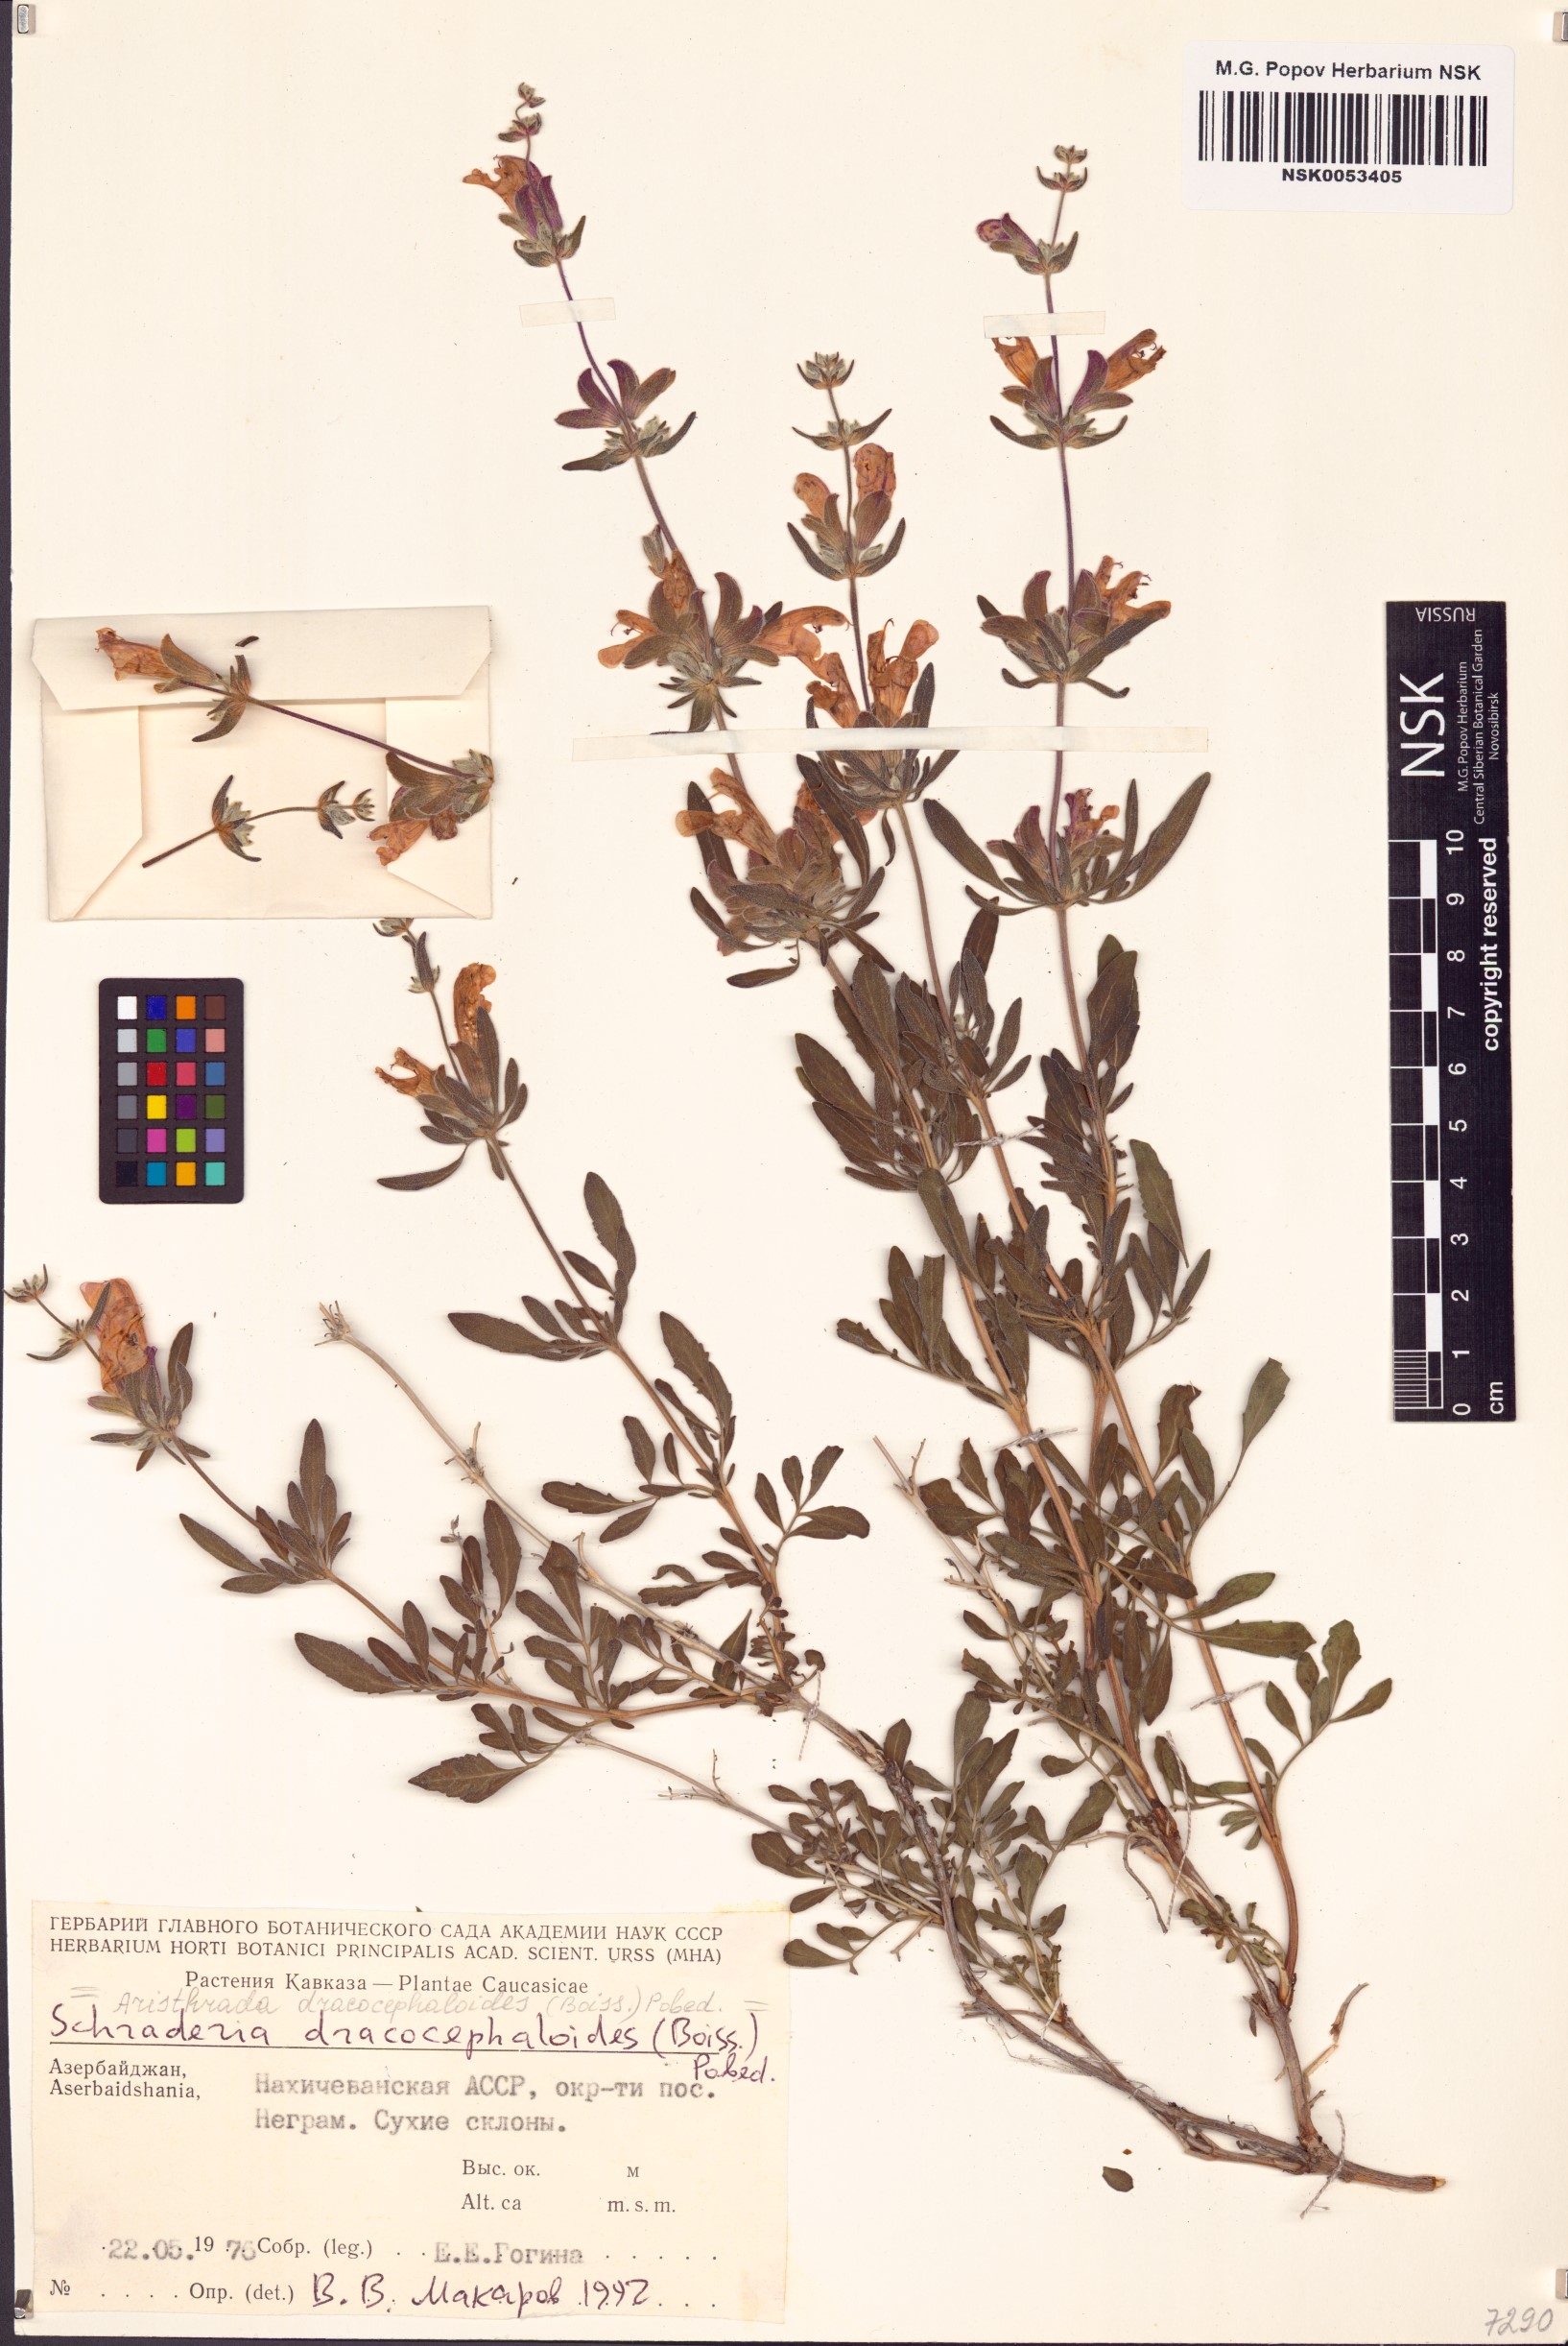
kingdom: Plantae
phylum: Tracheophyta
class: Magnoliopsida
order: Lamiales
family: Lamiaceae
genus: Salvia
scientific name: Salvia hydrangea
